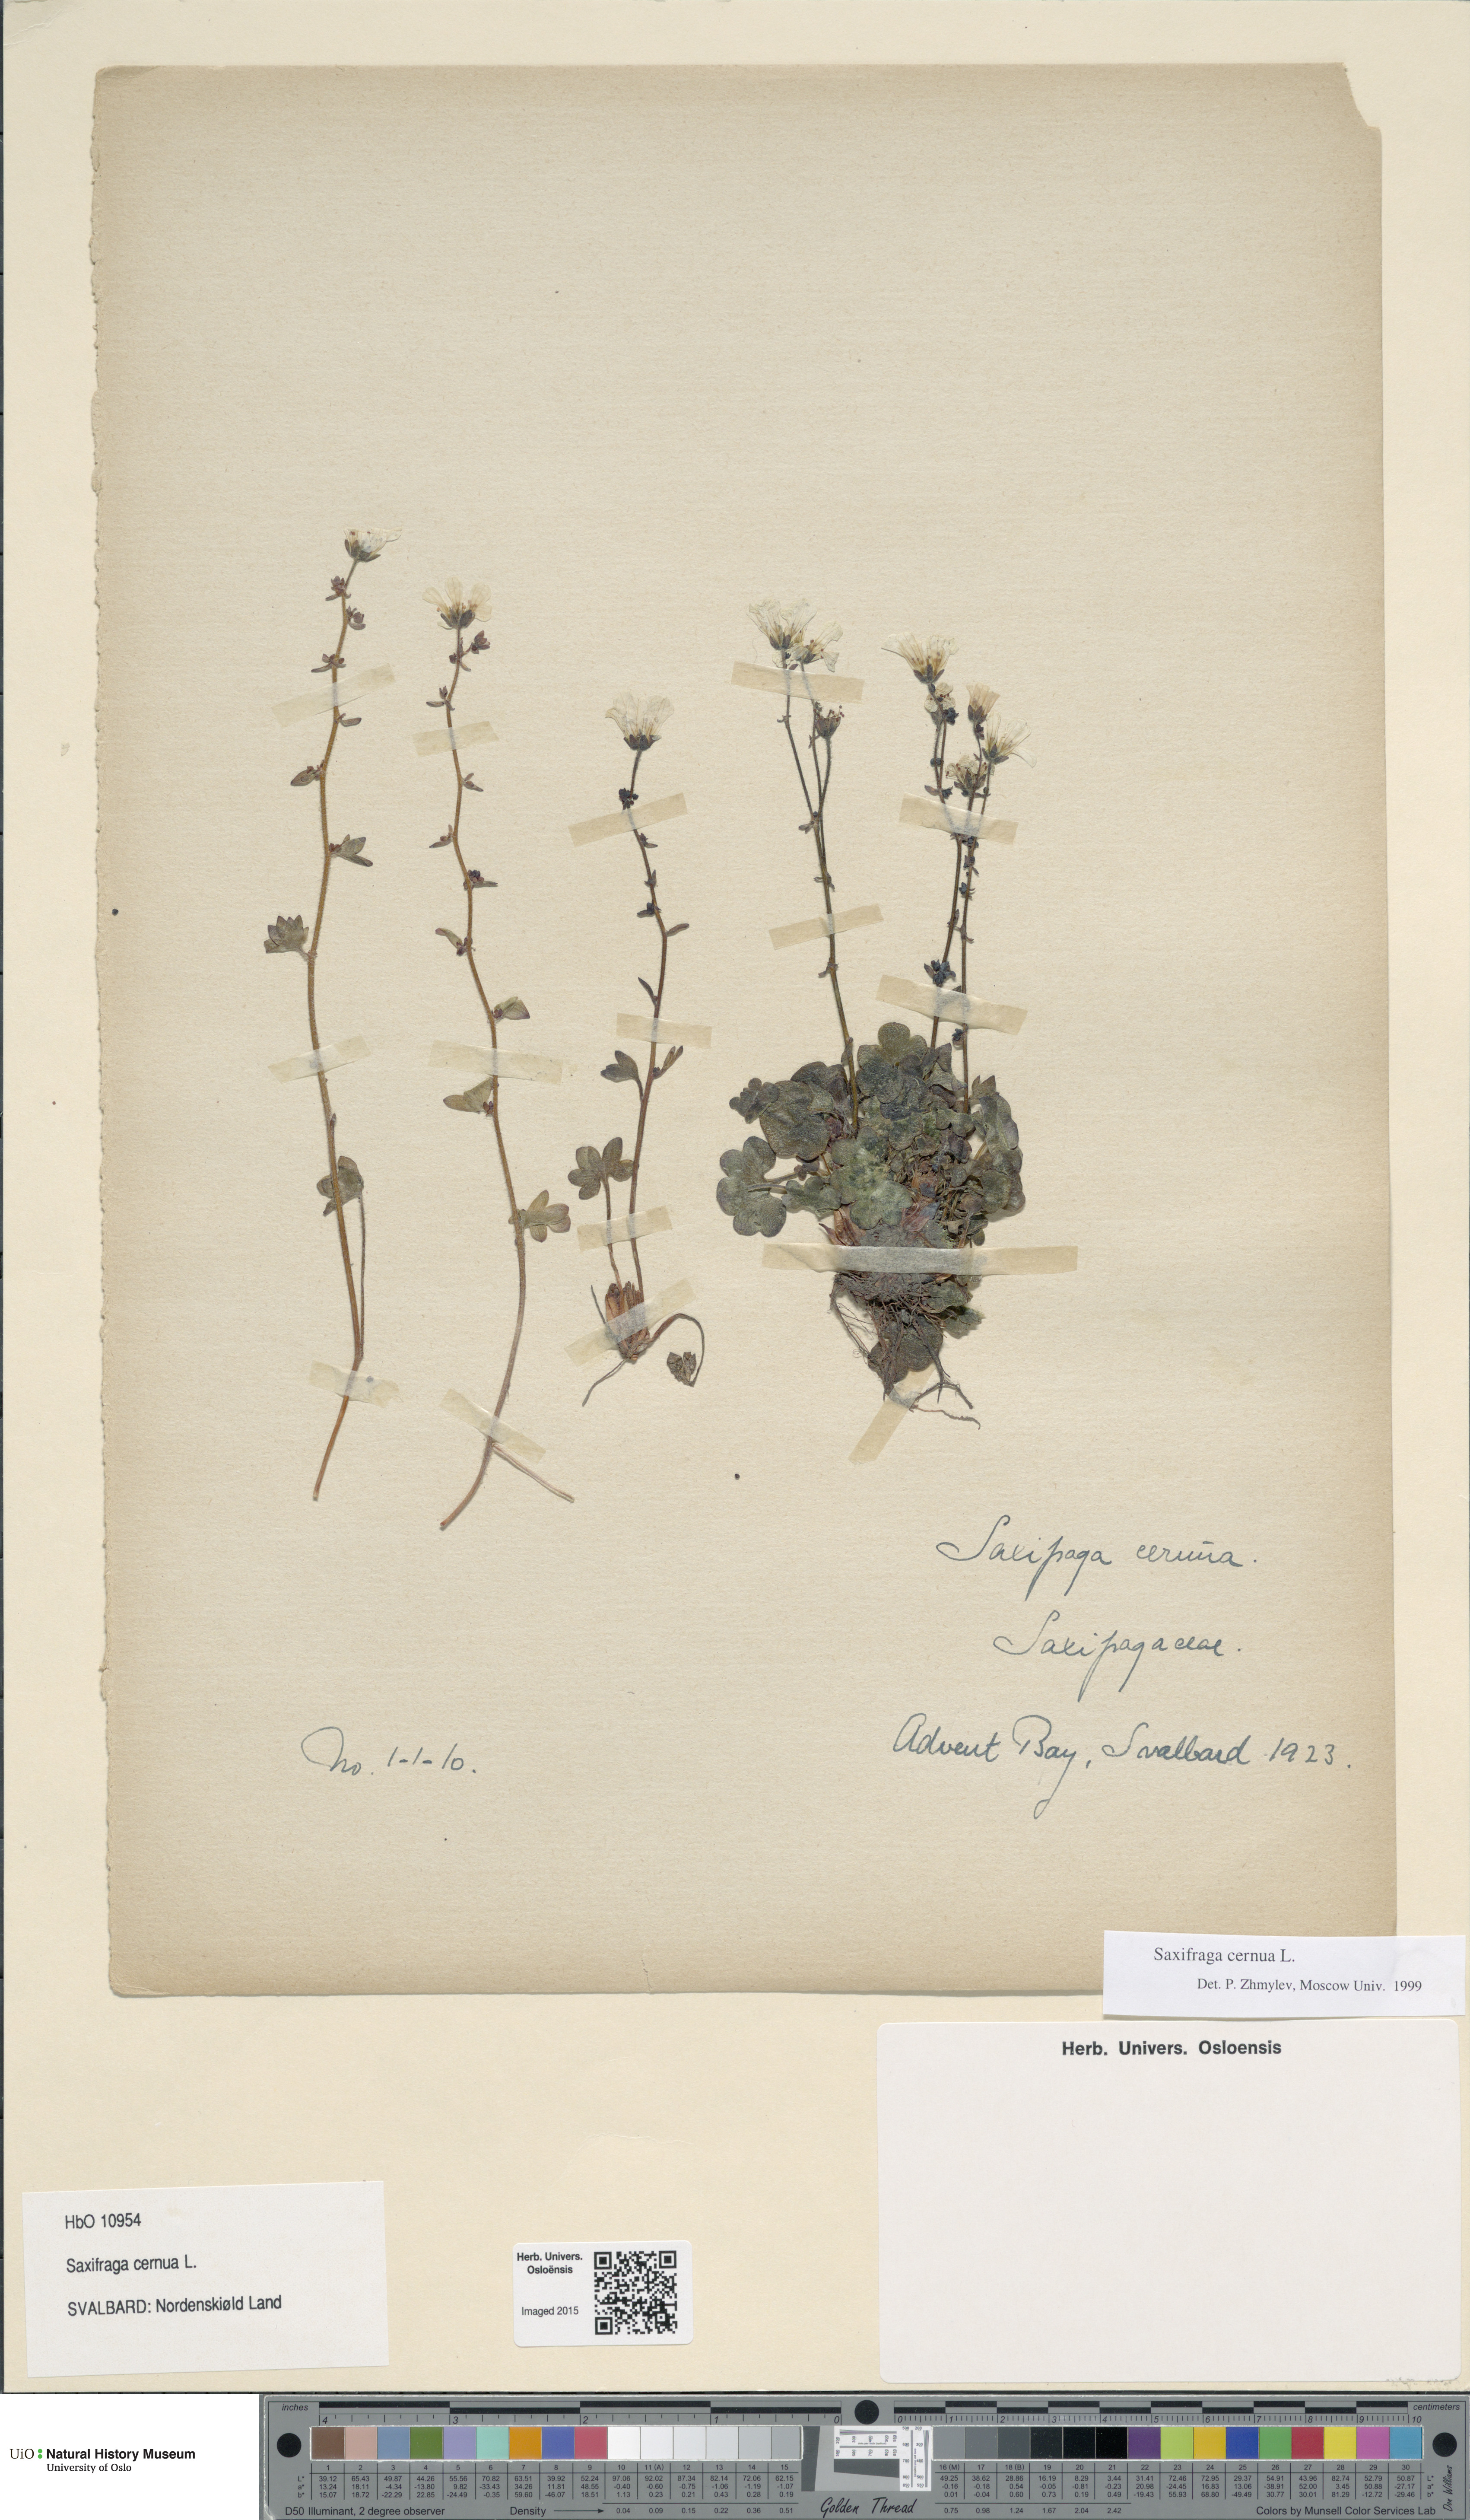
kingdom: Plantae
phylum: Tracheophyta
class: Magnoliopsida
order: Saxifragales
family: Saxifragaceae
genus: Saxifraga
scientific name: Saxifraga cernua
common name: Drooping saxifrage
